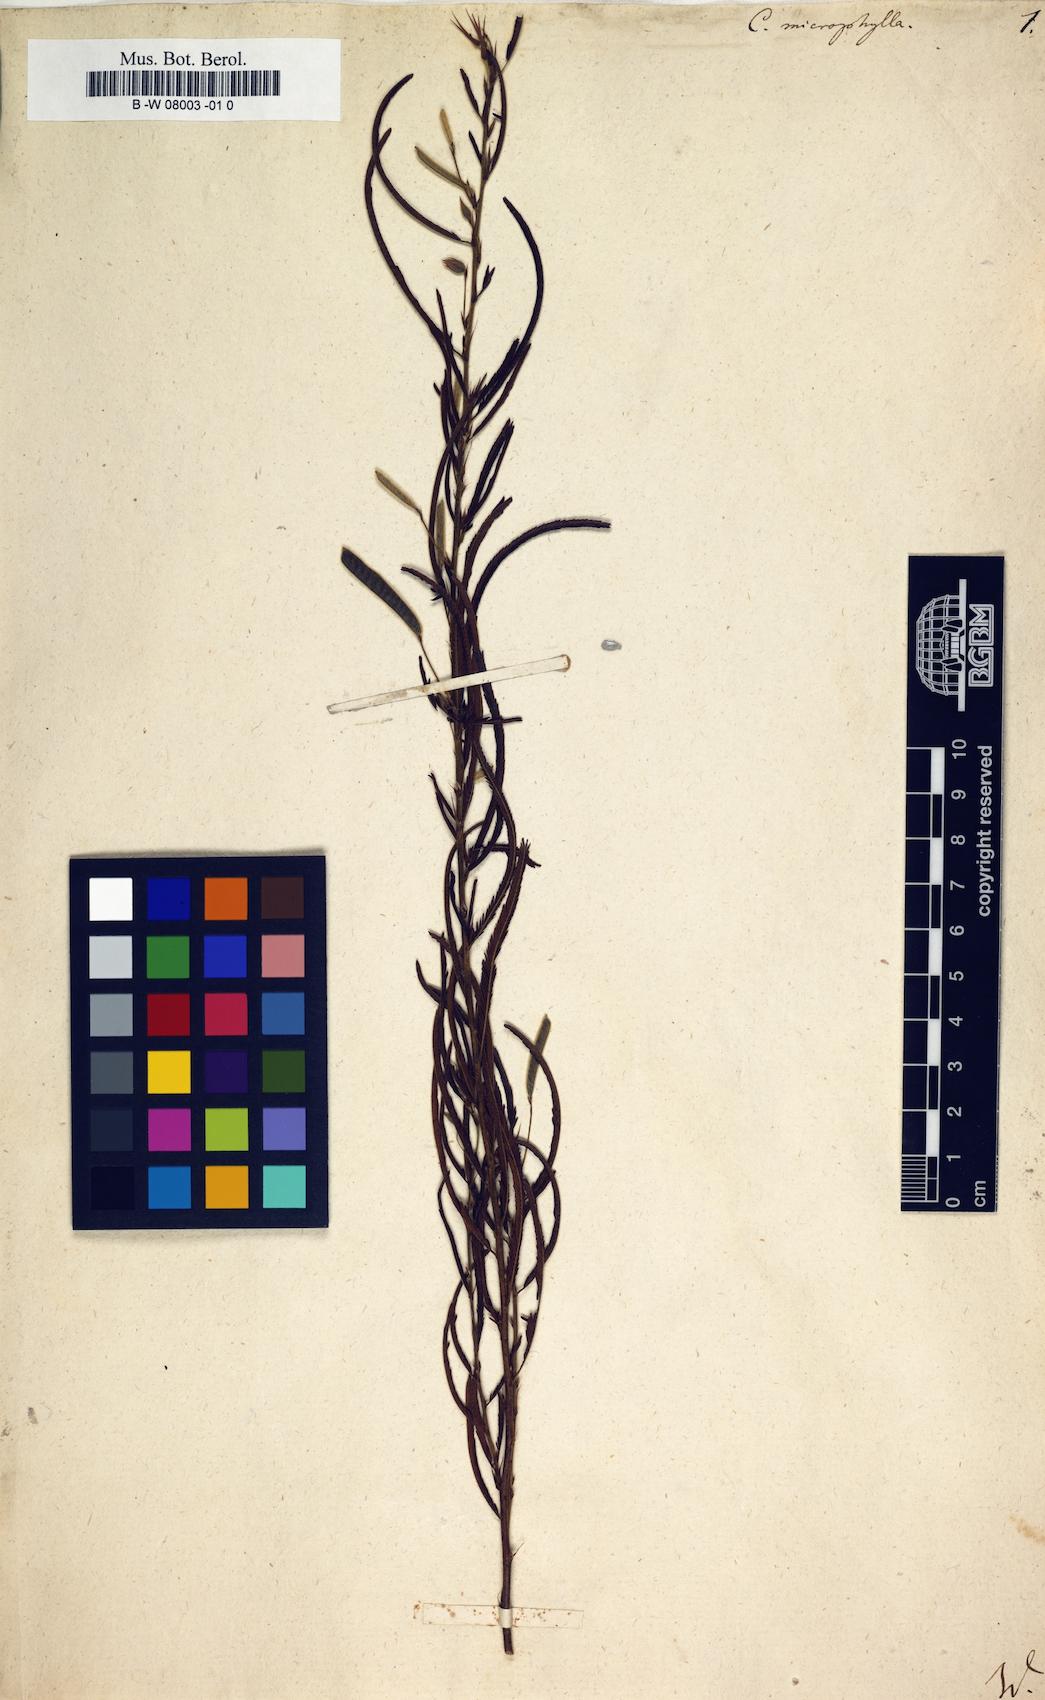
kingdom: Plantae
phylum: Tracheophyta
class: Magnoliopsida
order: Fabales
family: Fabaceae
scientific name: Fabaceae
